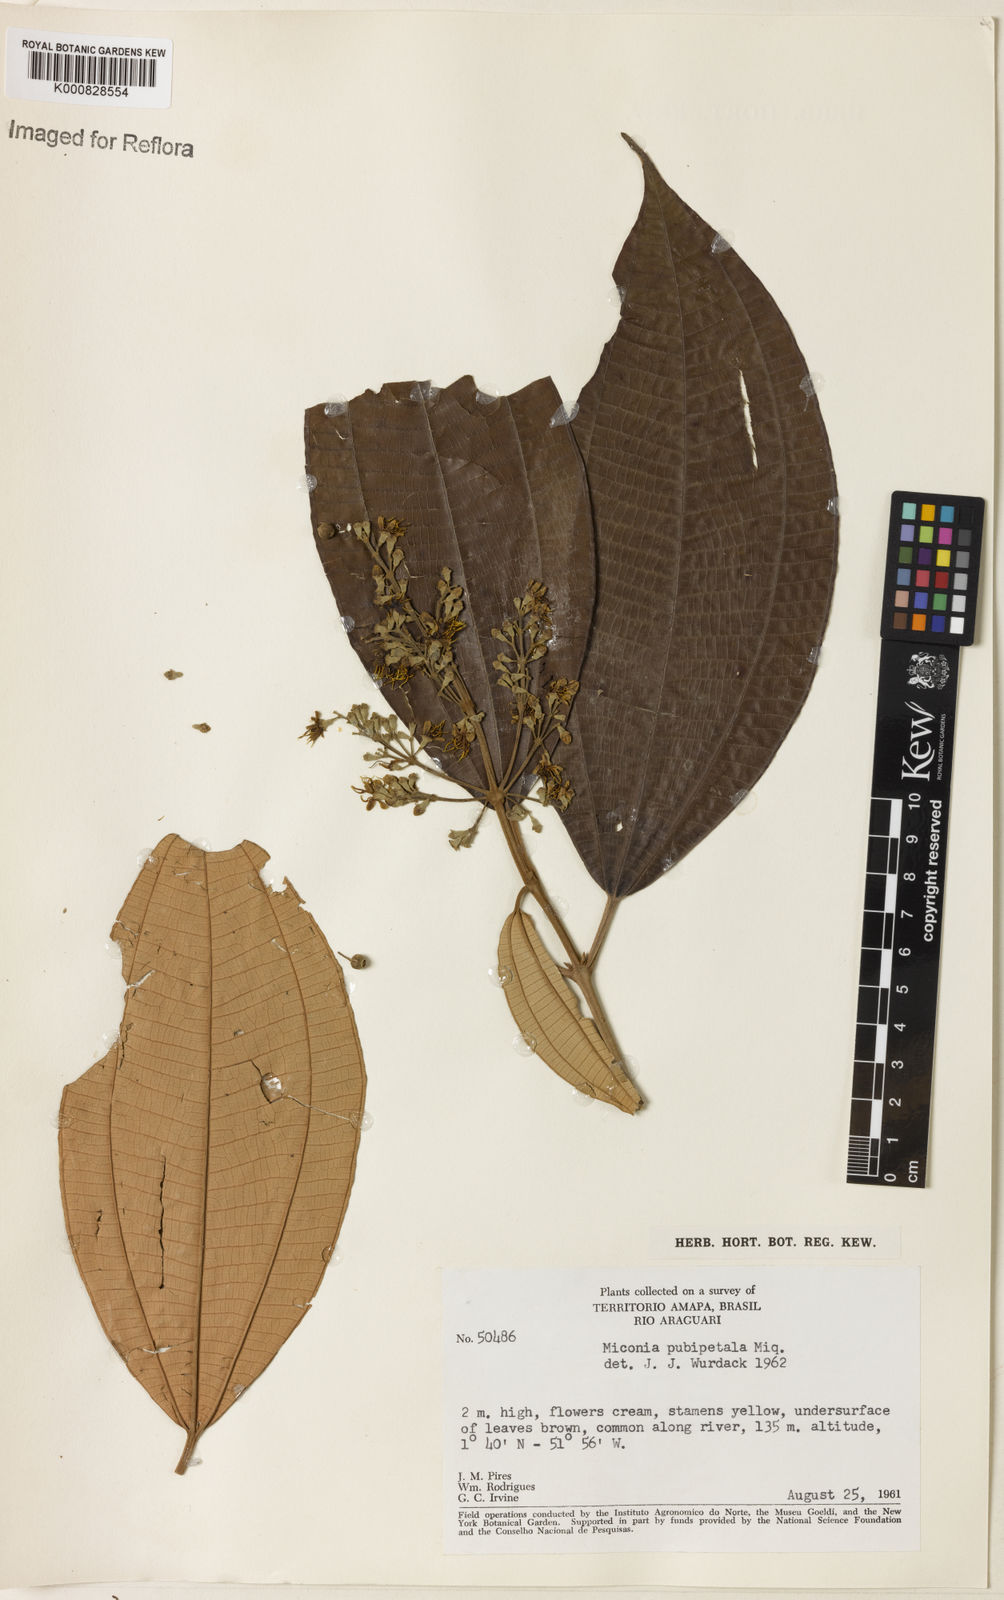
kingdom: Plantae
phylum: Tracheophyta
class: Magnoliopsida
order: Myrtales
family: Melastomataceae
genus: Miconia
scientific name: Miconia pubipetala
